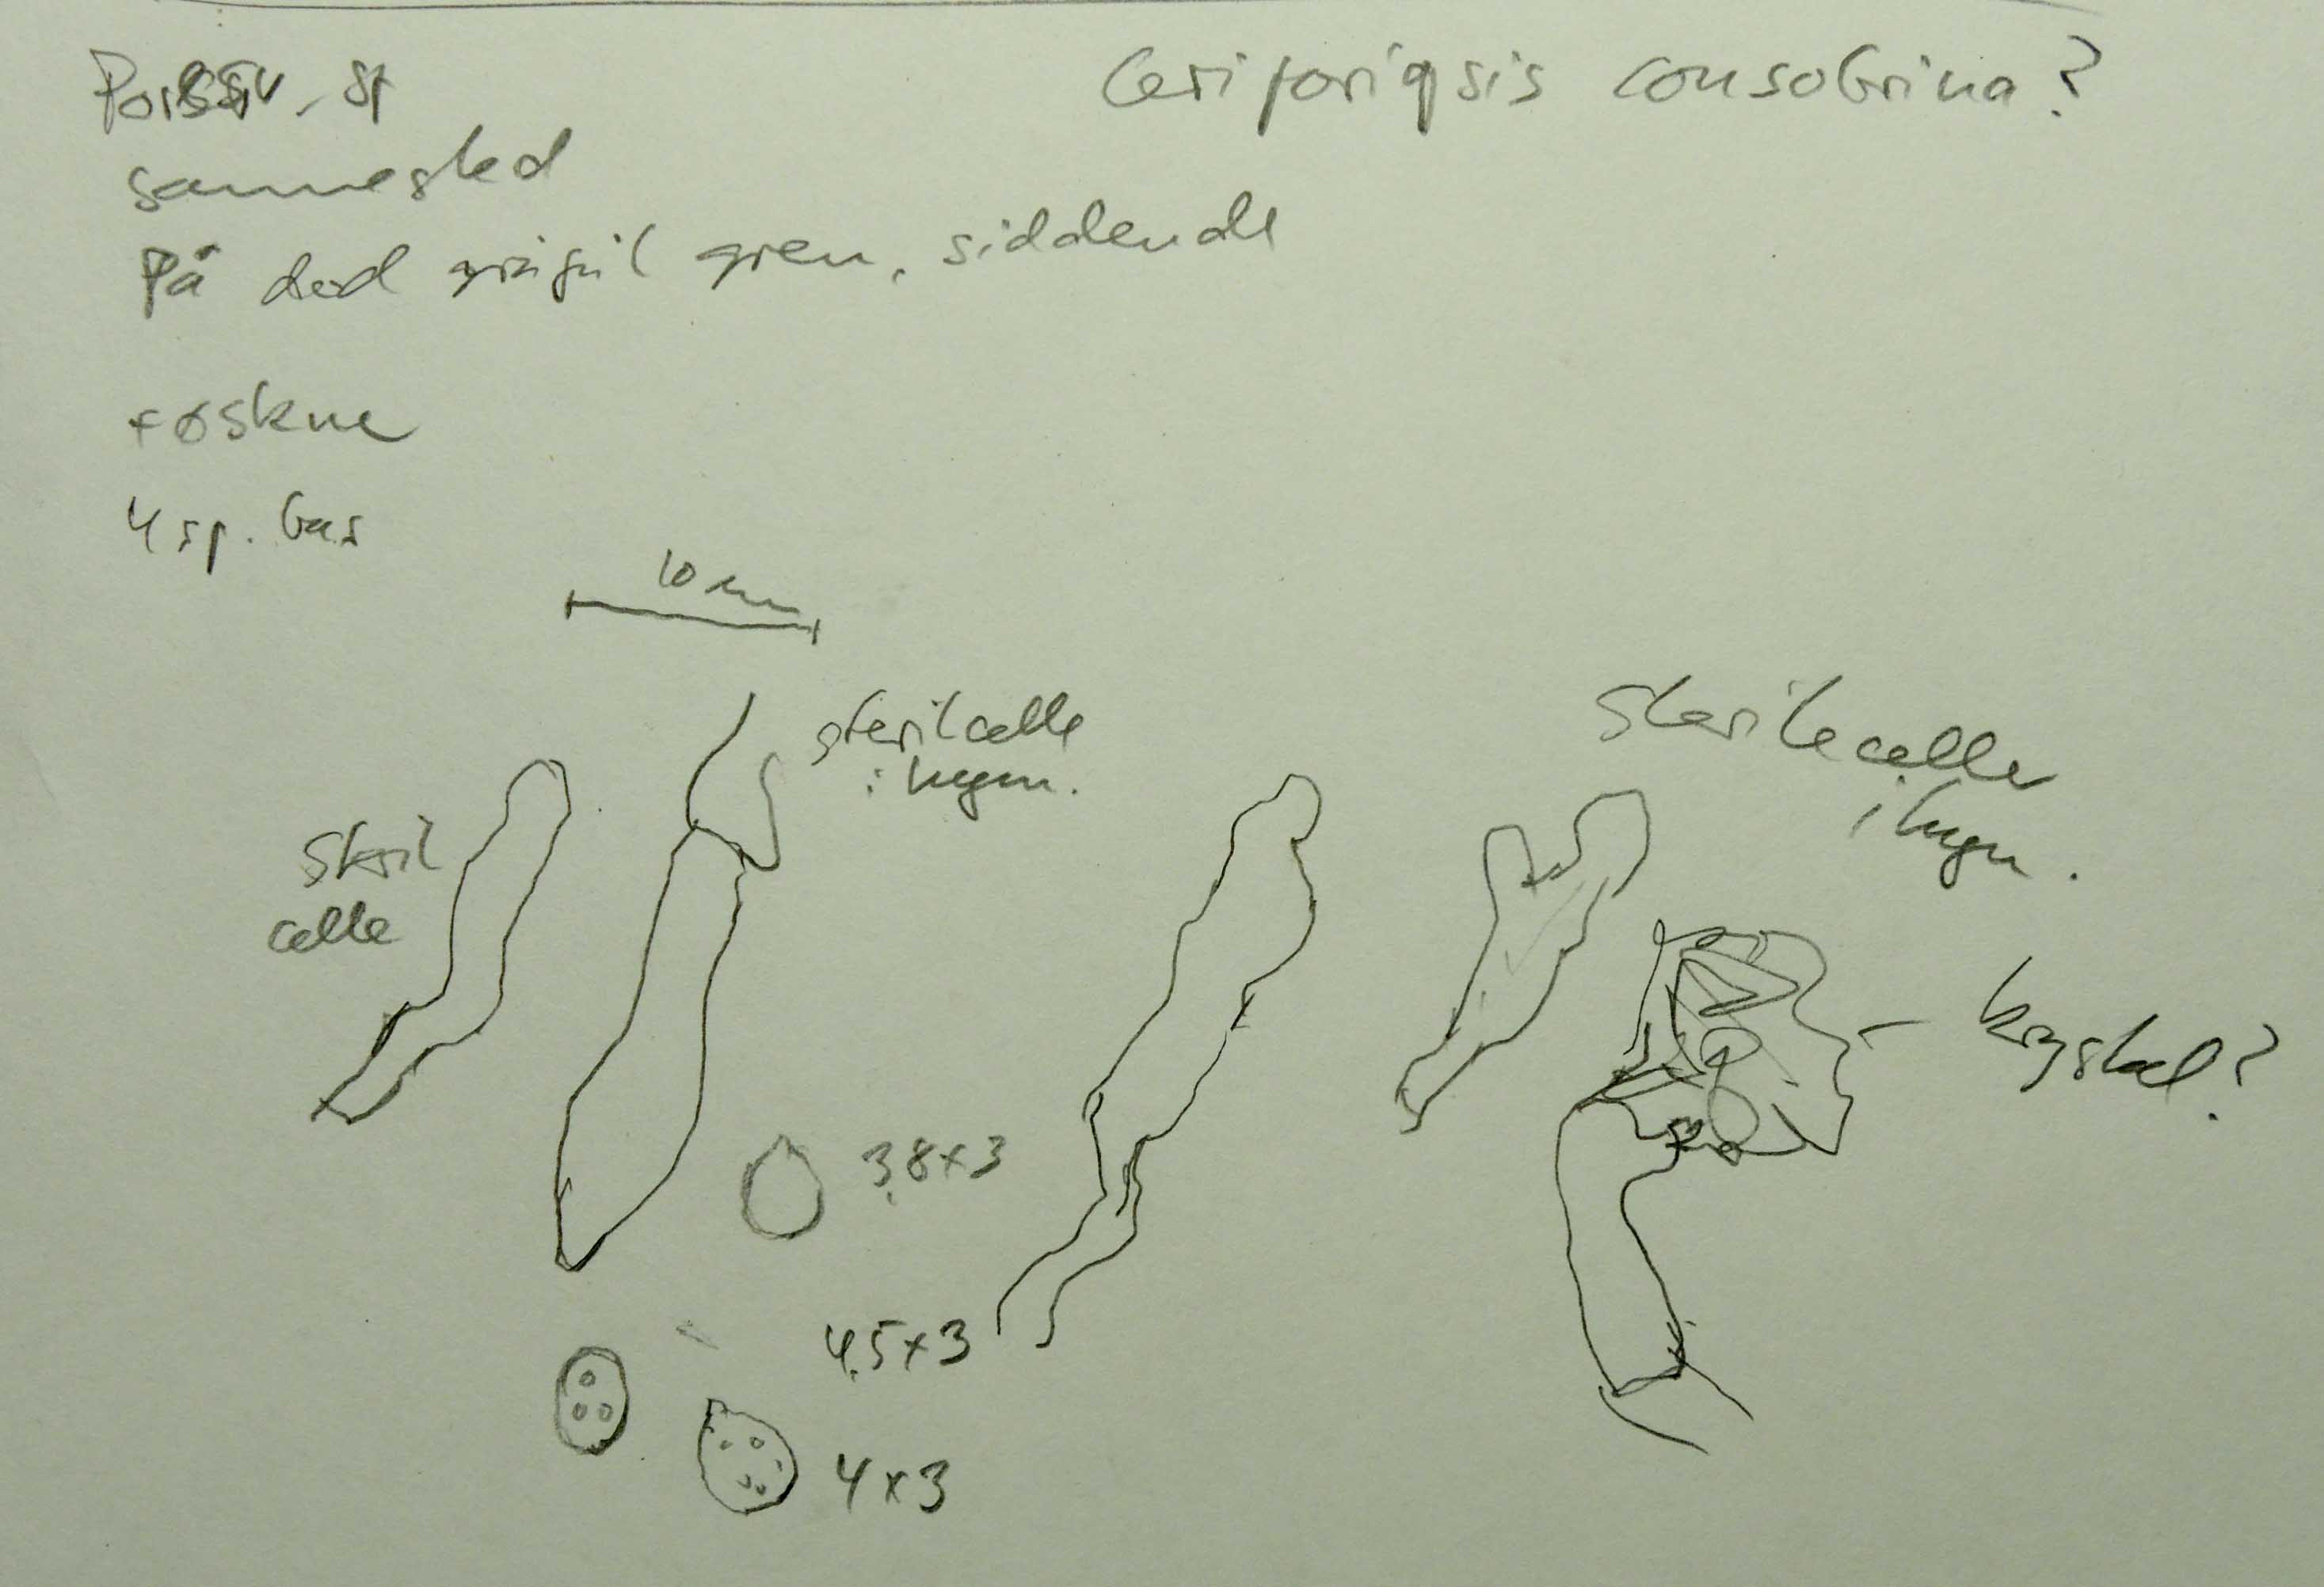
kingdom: Fungi
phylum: Basidiomycota
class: Agaricomycetes
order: Polyporales
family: Steccherinaceae
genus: Niemelaea
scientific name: Niemelaea consobrina
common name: brunlig pastelporesvamp
